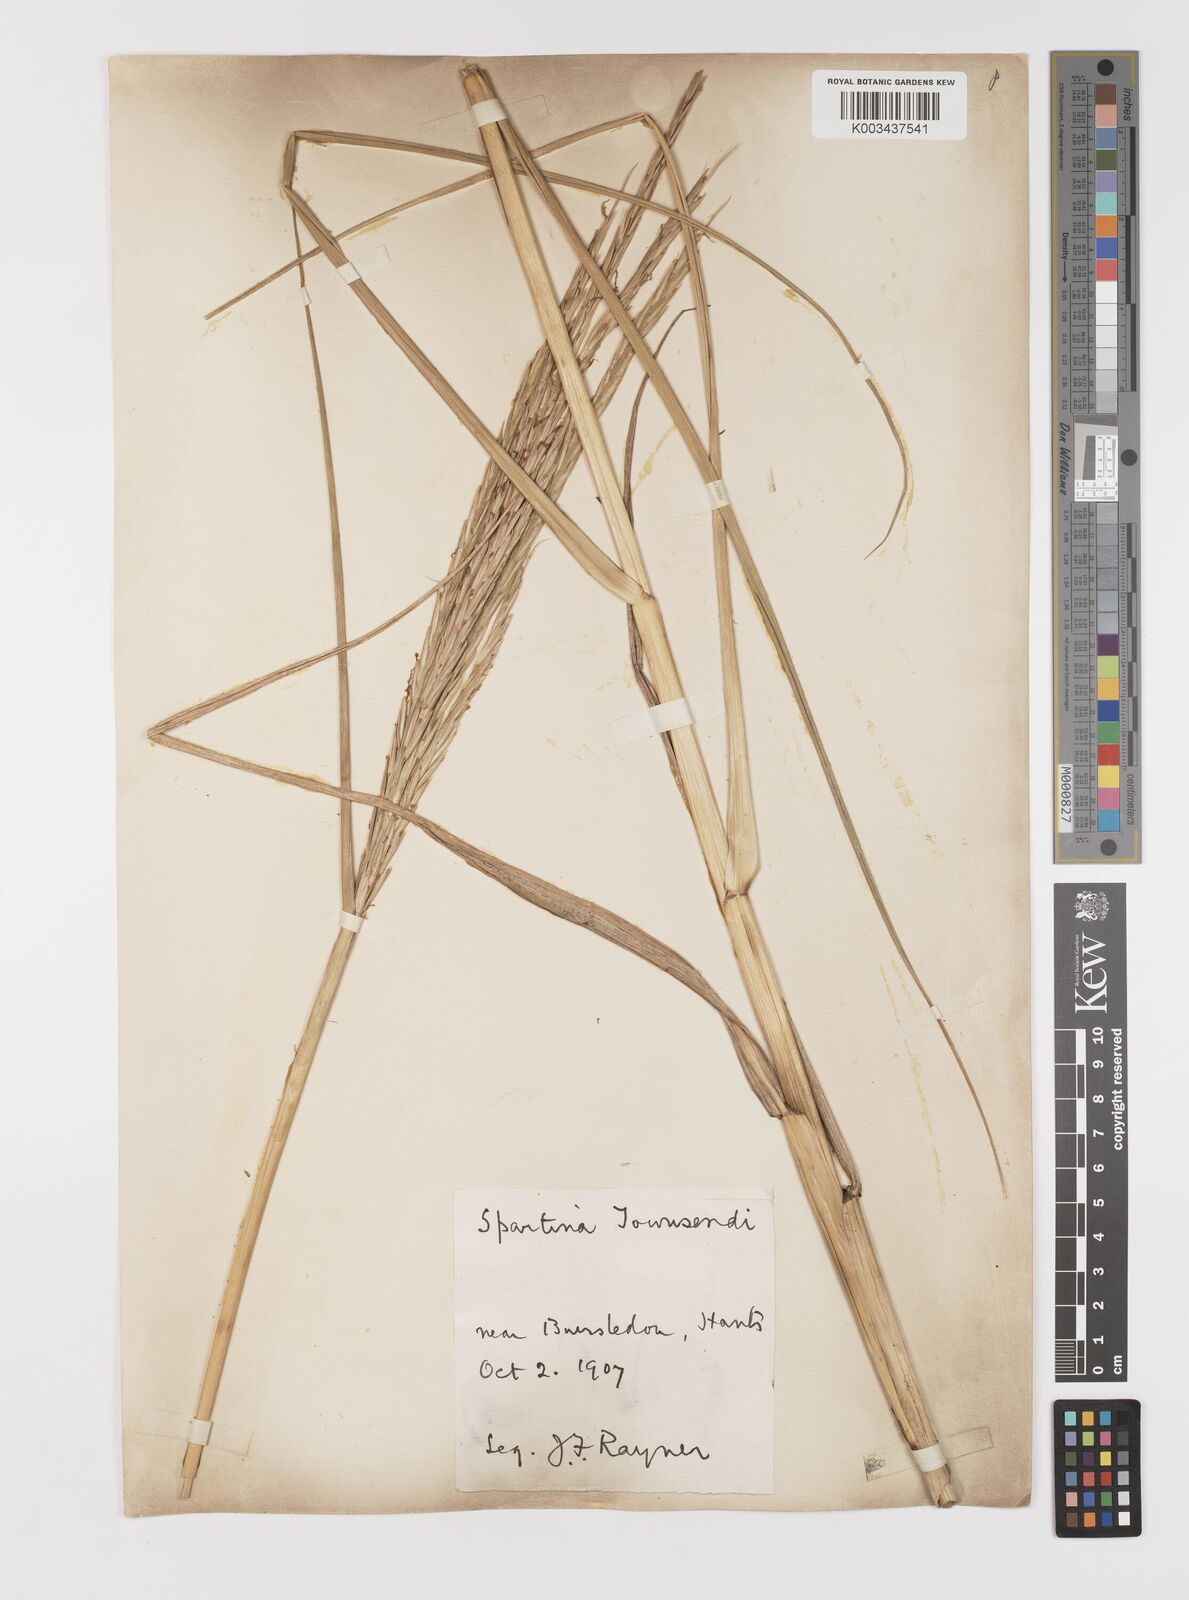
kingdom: Plantae
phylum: Tracheophyta
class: Liliopsida
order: Poales
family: Poaceae
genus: Sporobolus
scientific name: Sporobolus anglicus
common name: English cordgrass
